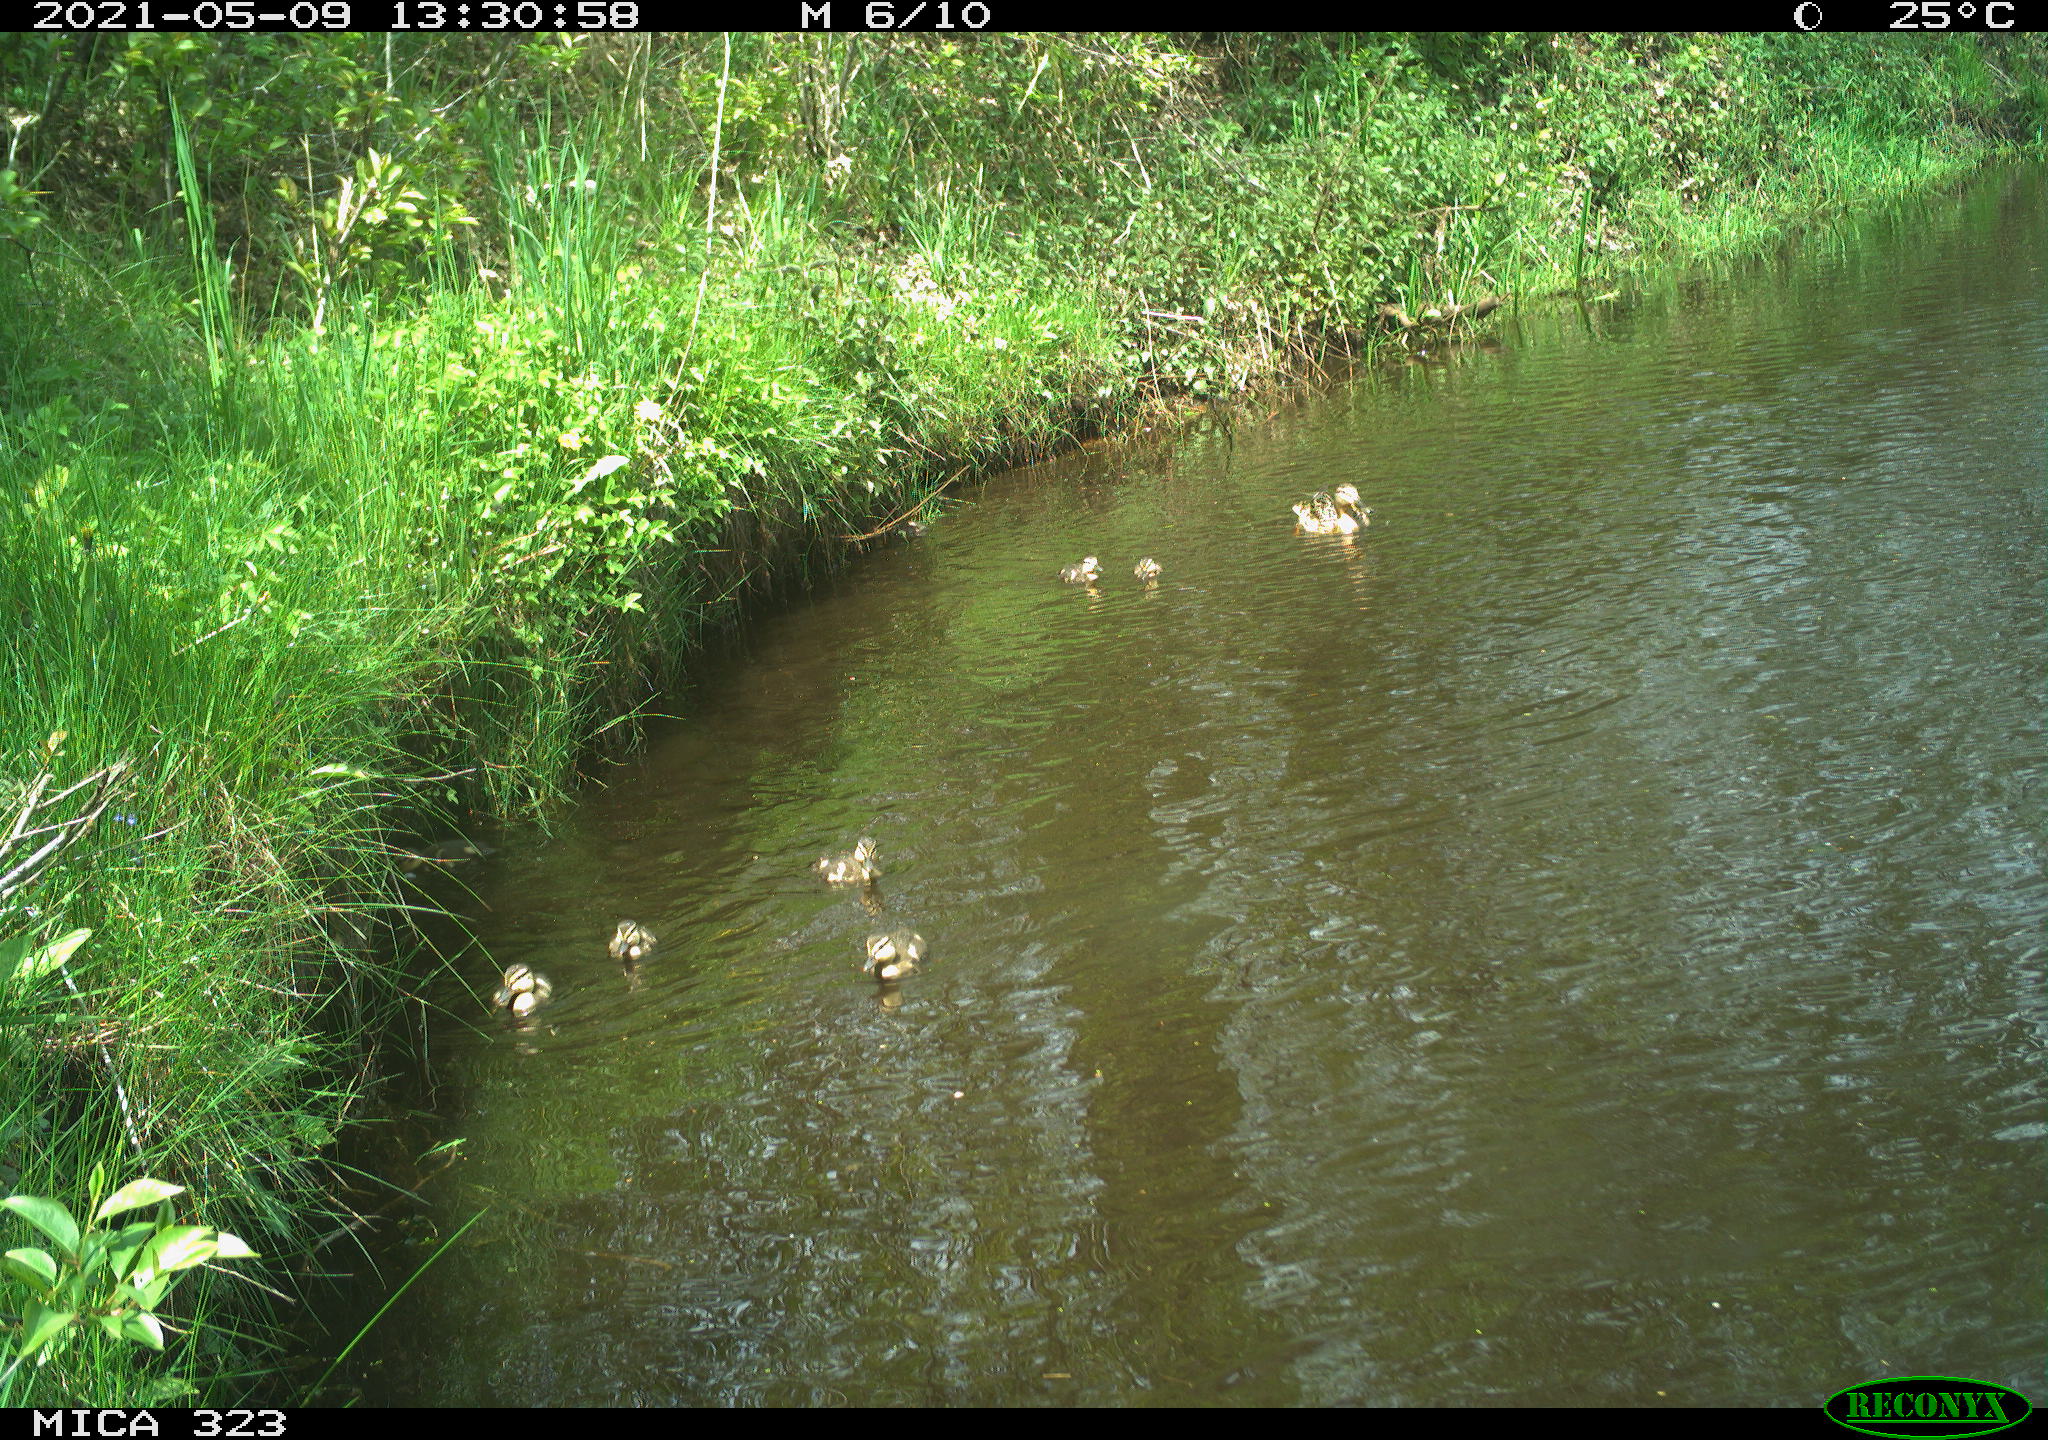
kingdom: Animalia
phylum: Chordata
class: Aves
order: Anseriformes
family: Anatidae
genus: Anas
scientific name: Anas platyrhynchos
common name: Mallard
